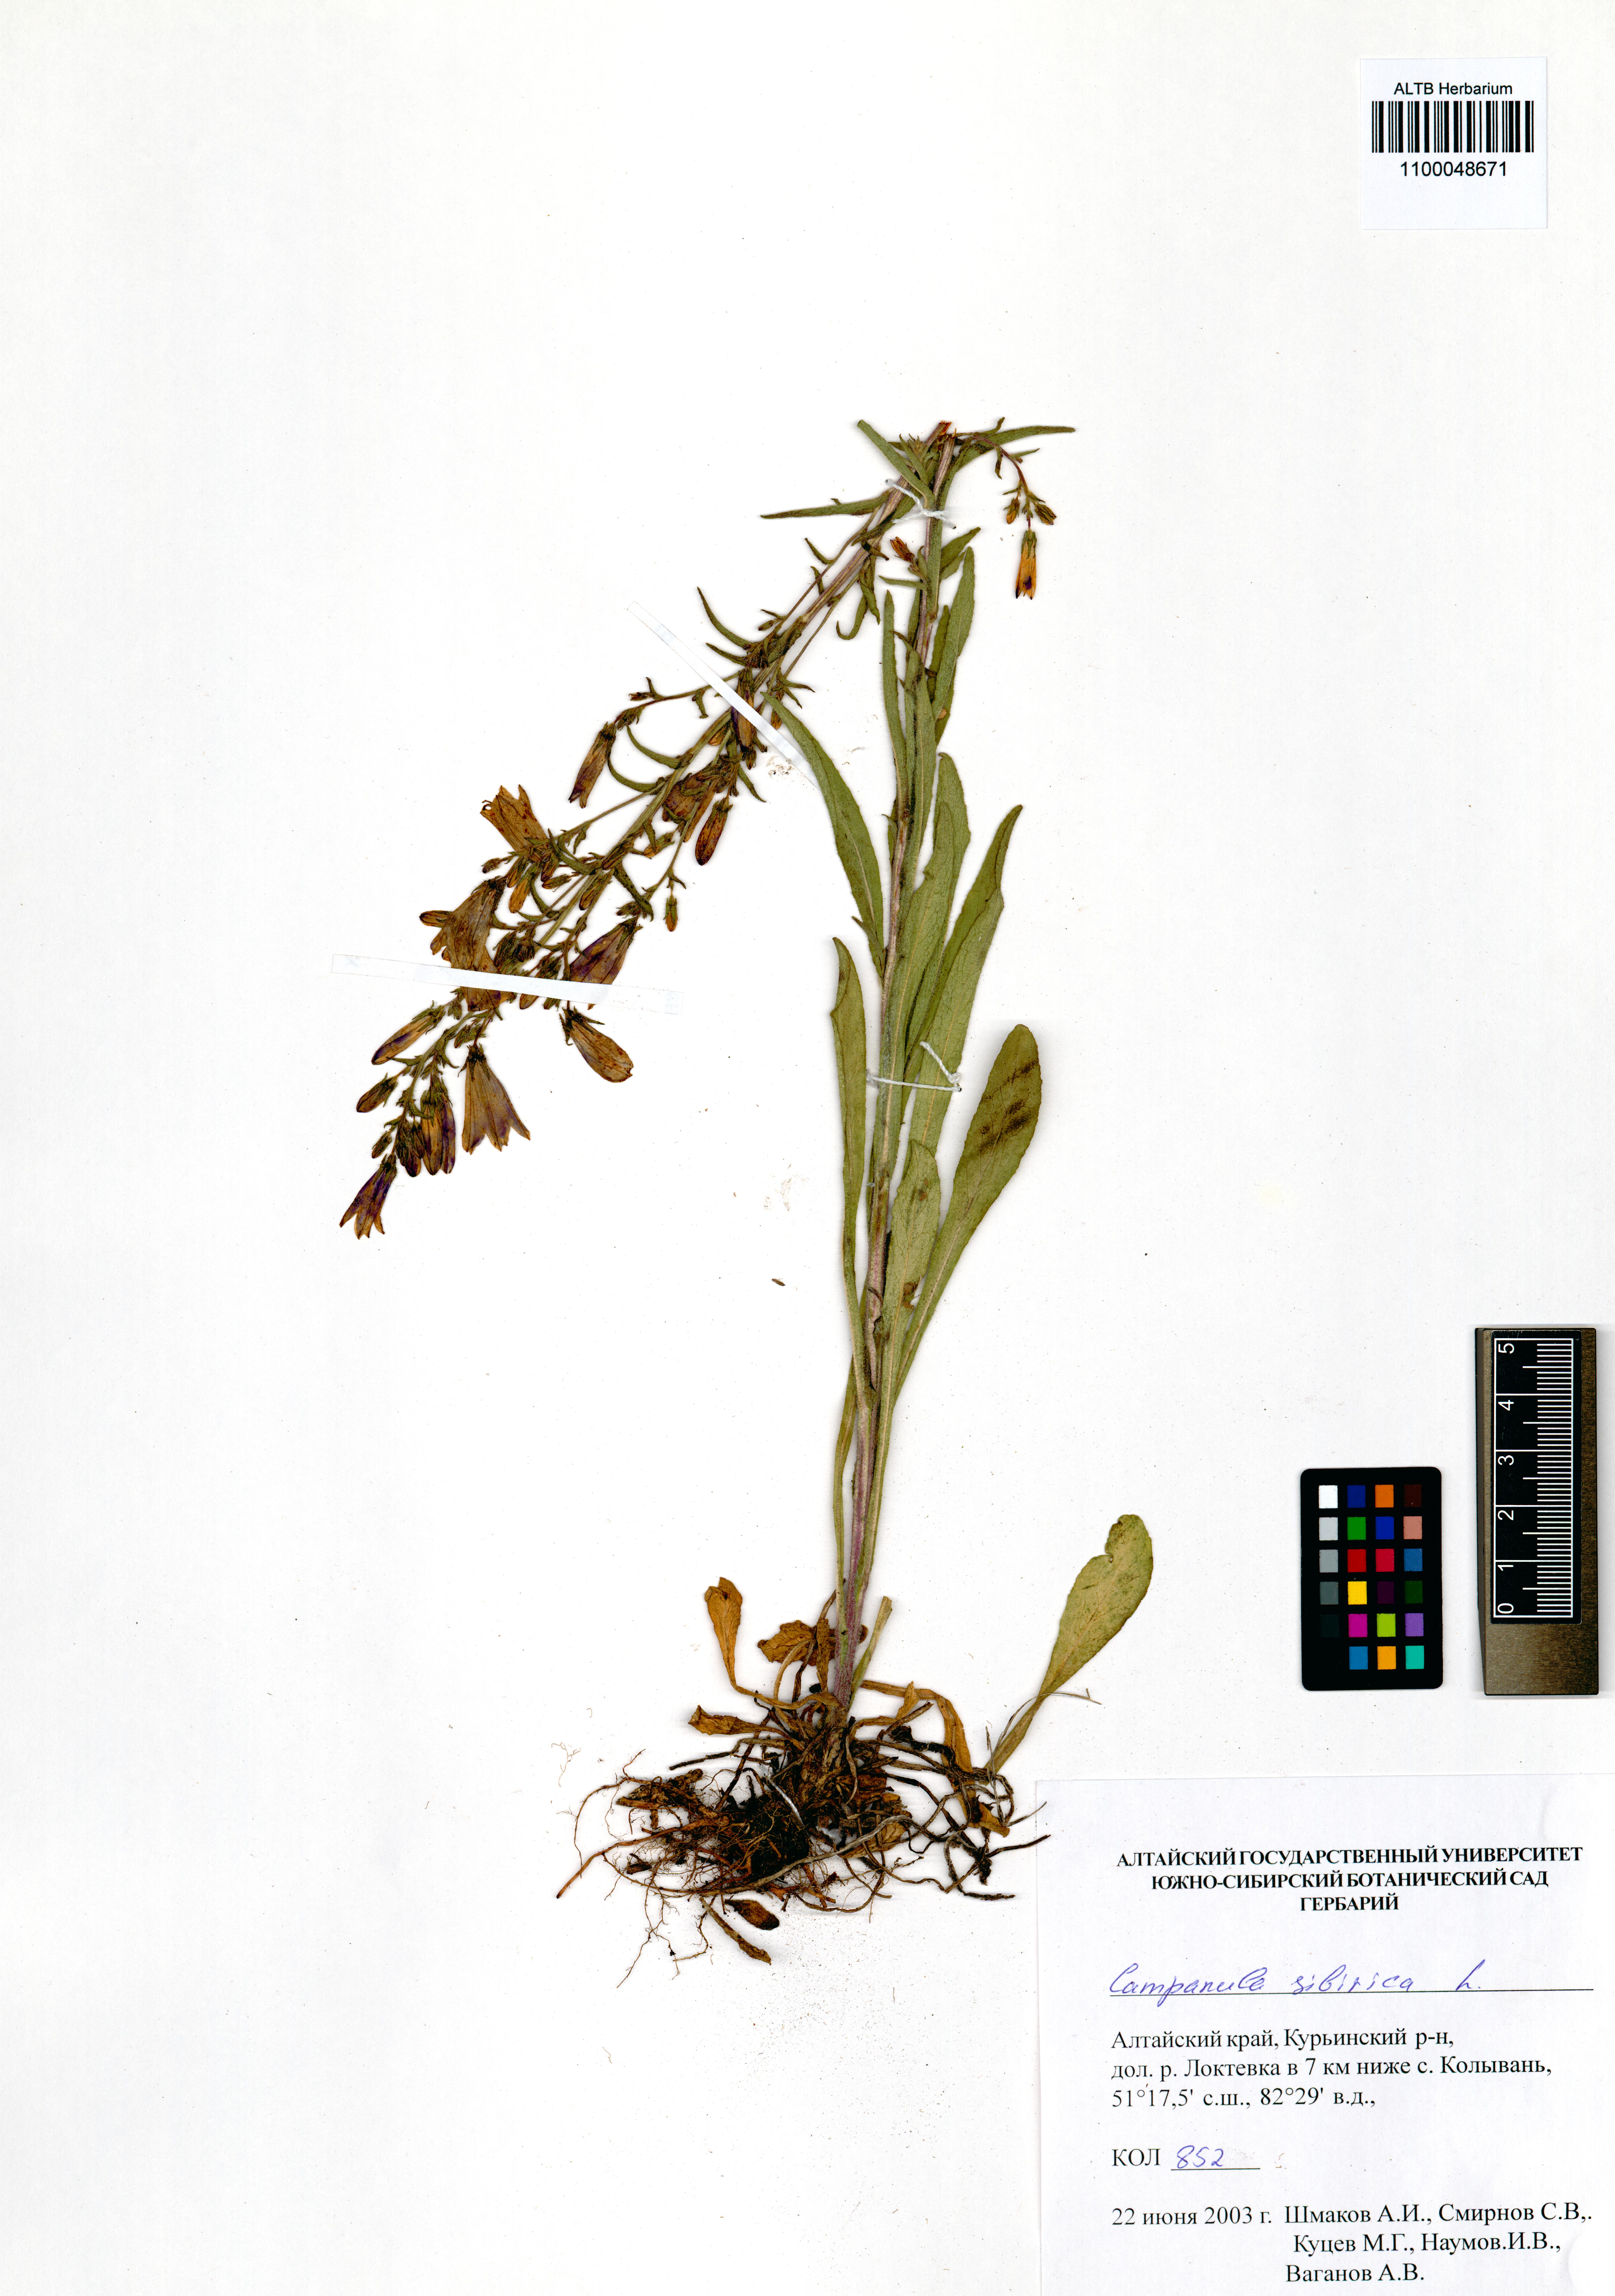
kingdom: Plantae
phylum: Tracheophyta
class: Magnoliopsida
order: Asterales
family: Campanulaceae
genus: Campanula
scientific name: Campanula sibirica
